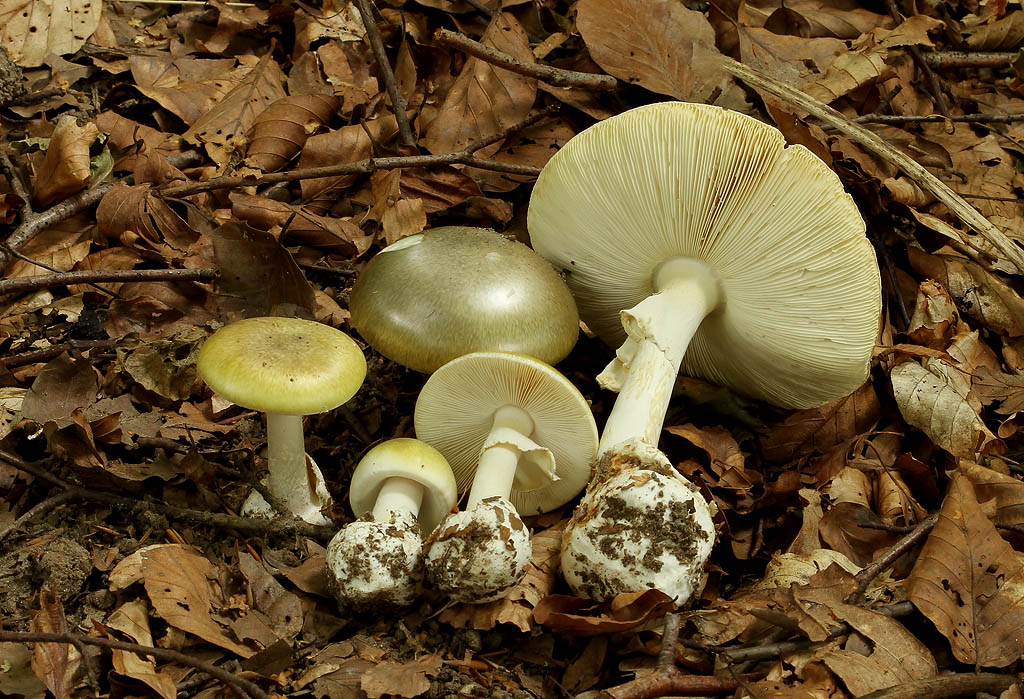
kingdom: Fungi
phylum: Basidiomycota
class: Agaricomycetes
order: Agaricales
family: Amanitaceae
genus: Amanita
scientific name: Amanita phalloides
